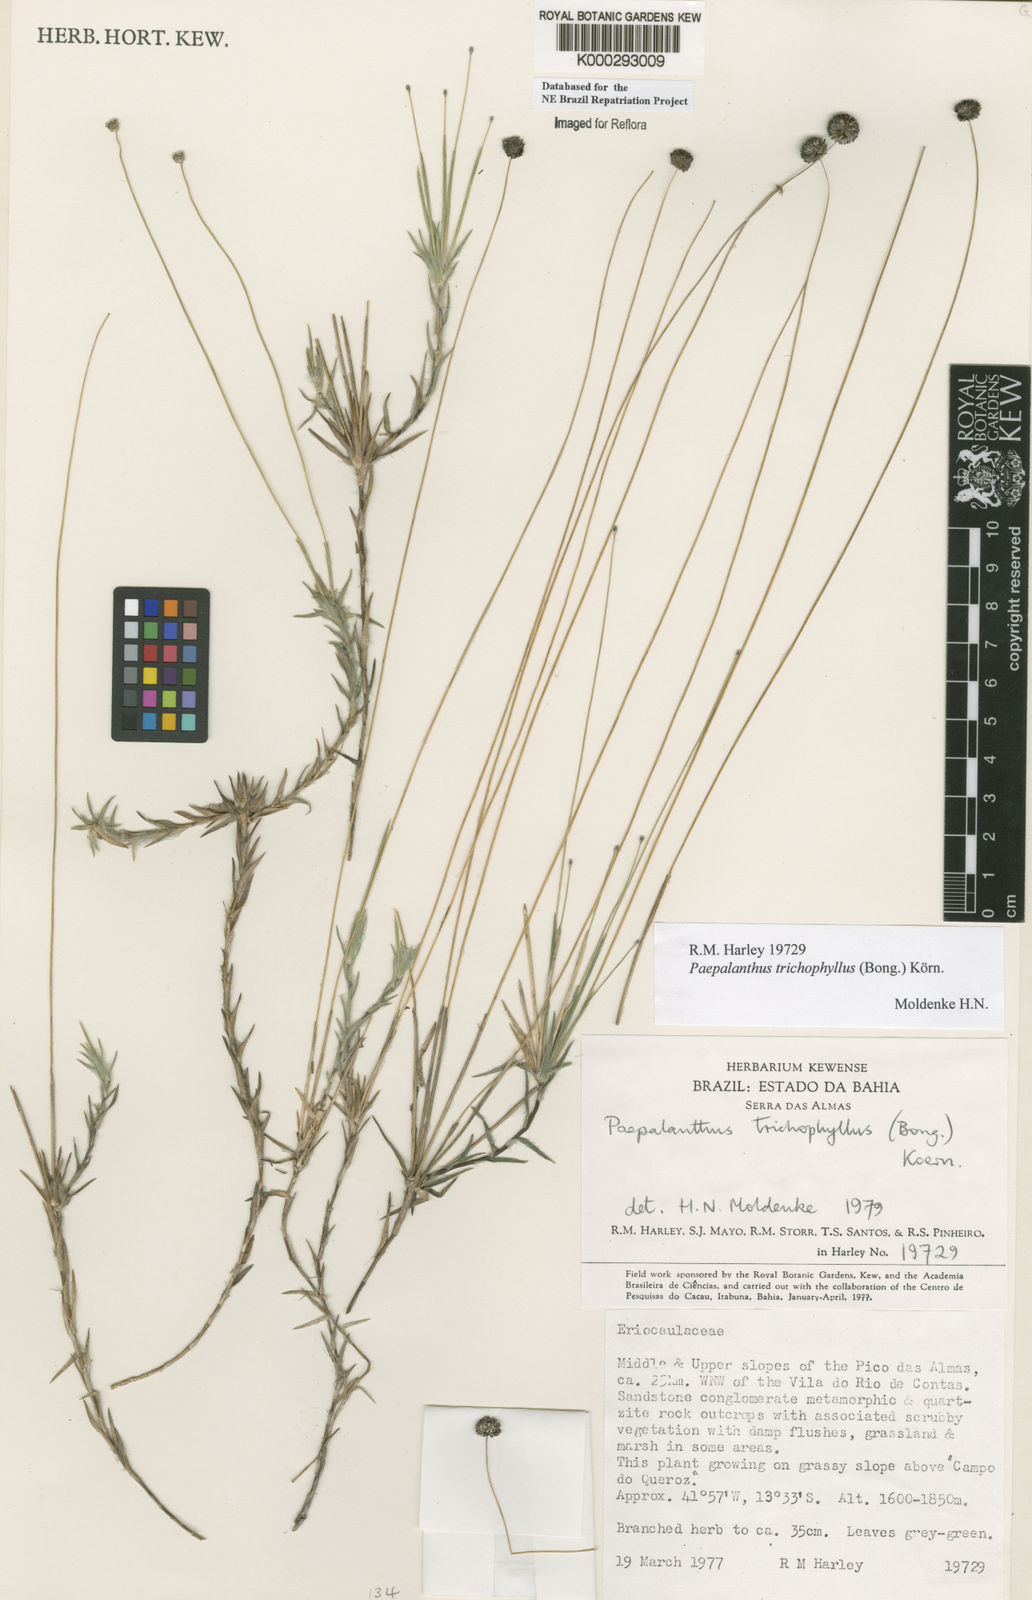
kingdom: Plantae
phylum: Tracheophyta
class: Liliopsida
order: Poales
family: Eriocaulaceae
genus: Paepalanthus
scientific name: Paepalanthus
